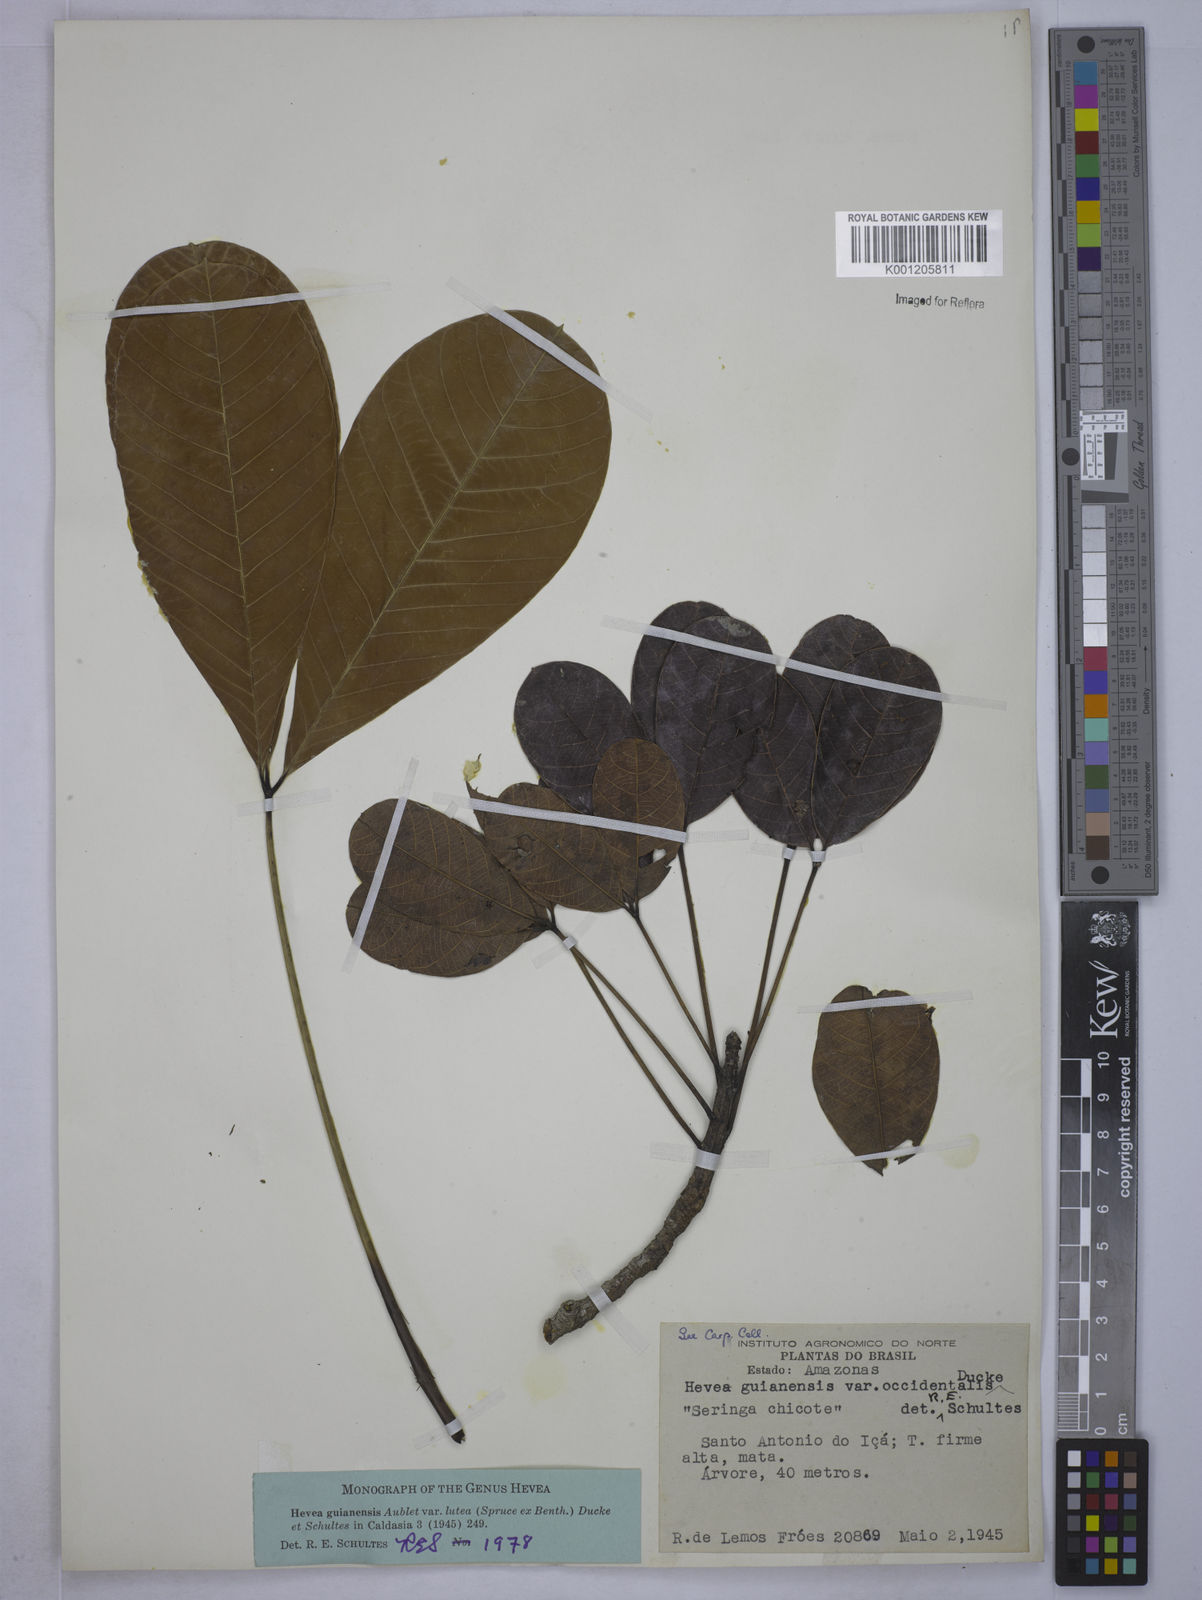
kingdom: Plantae
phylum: Tracheophyta
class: Magnoliopsida
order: Malpighiales
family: Euphorbiaceae
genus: Hevea
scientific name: Hevea guianensis
